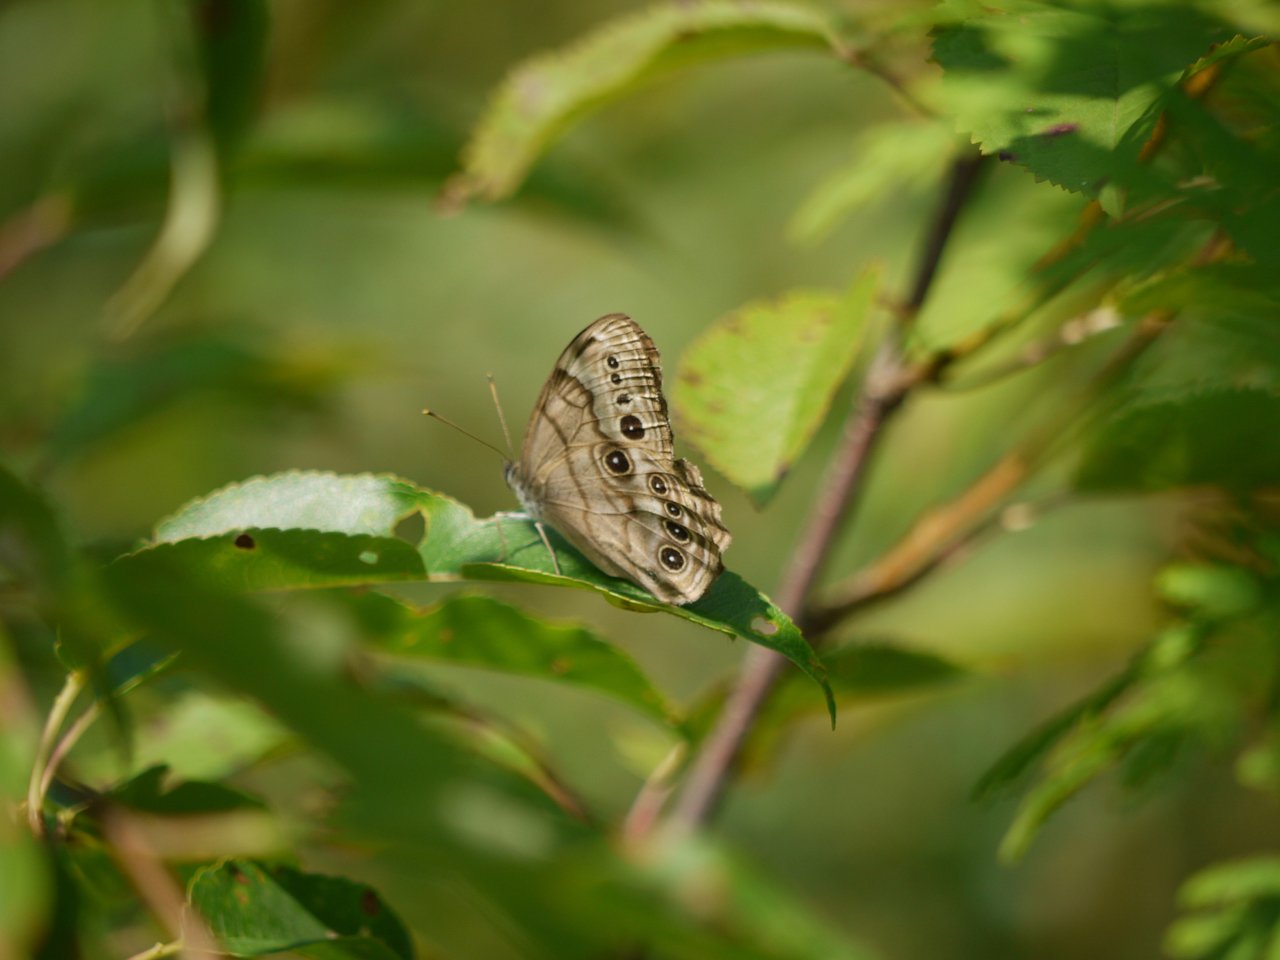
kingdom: Animalia
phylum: Arthropoda
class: Insecta
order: Lepidoptera
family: Nymphalidae
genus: Lethe
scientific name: Lethe anthedon
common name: Northern Pearly-Eye
